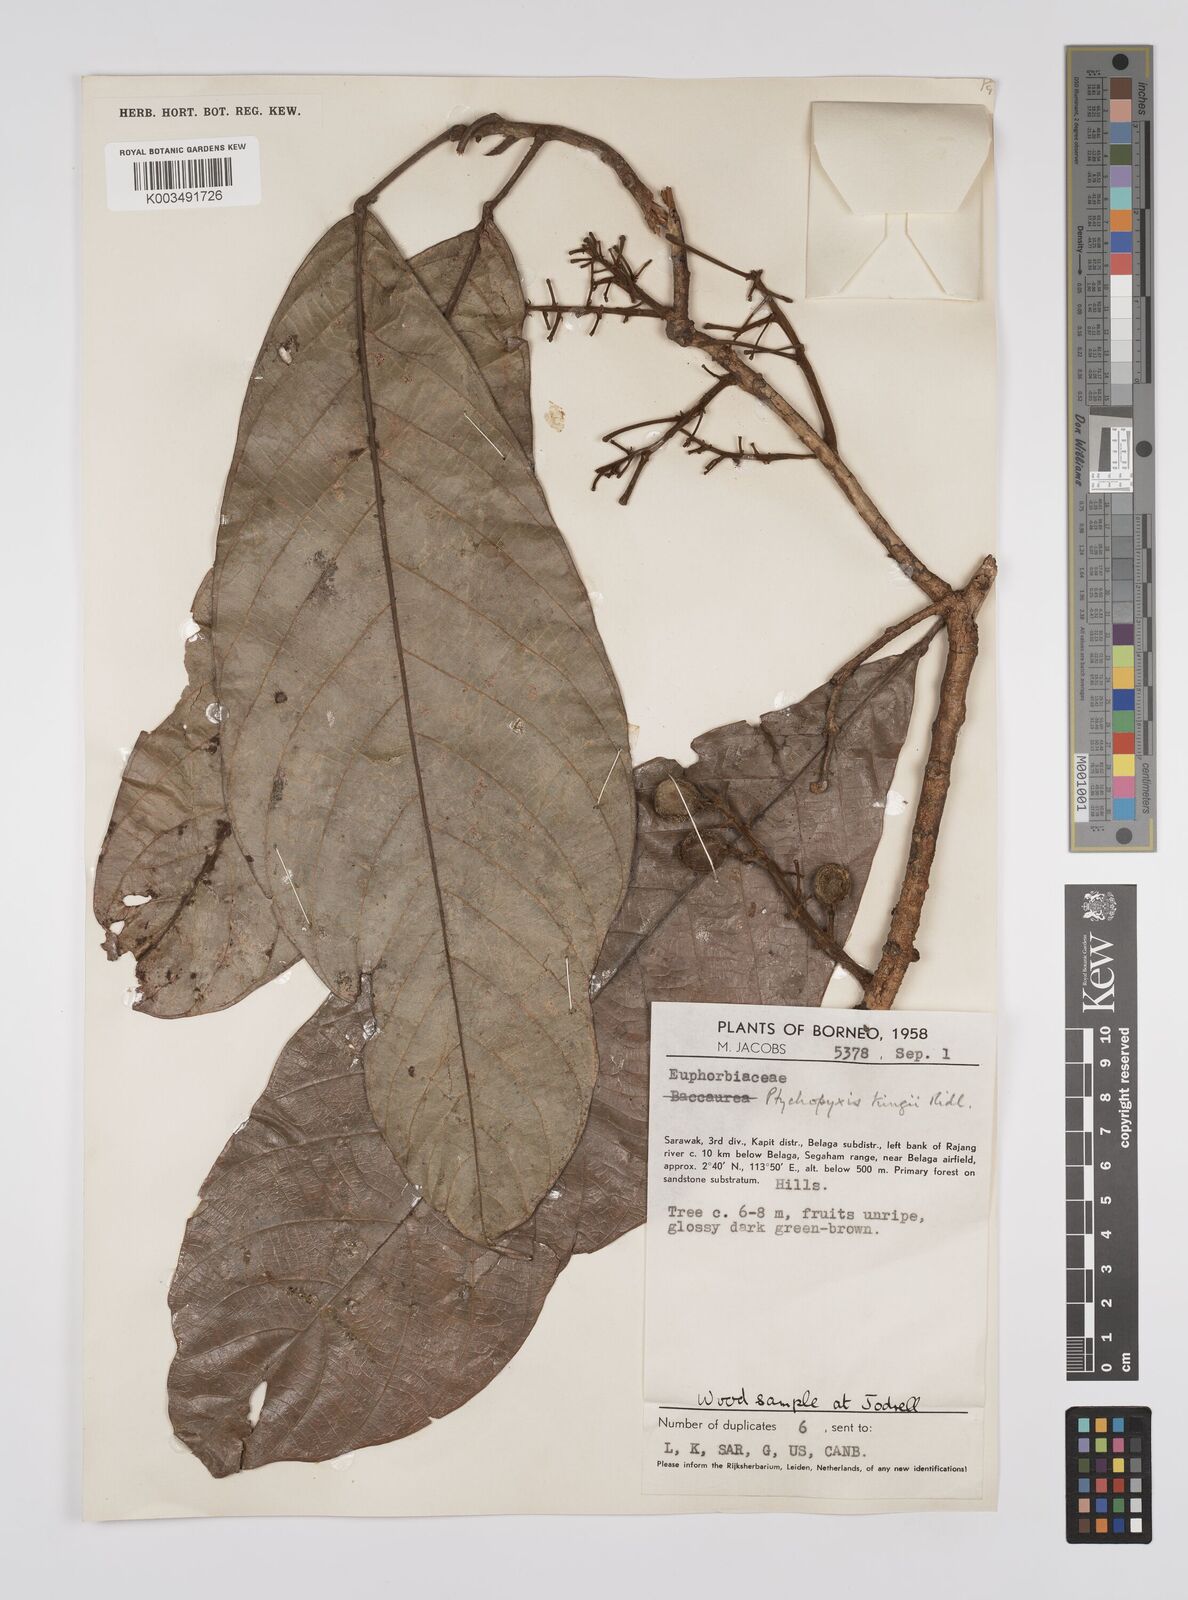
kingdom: Plantae
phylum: Tracheophyta
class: Magnoliopsida
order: Malpighiales
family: Euphorbiaceae
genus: Ptychopyxis
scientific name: Ptychopyxis kingii
